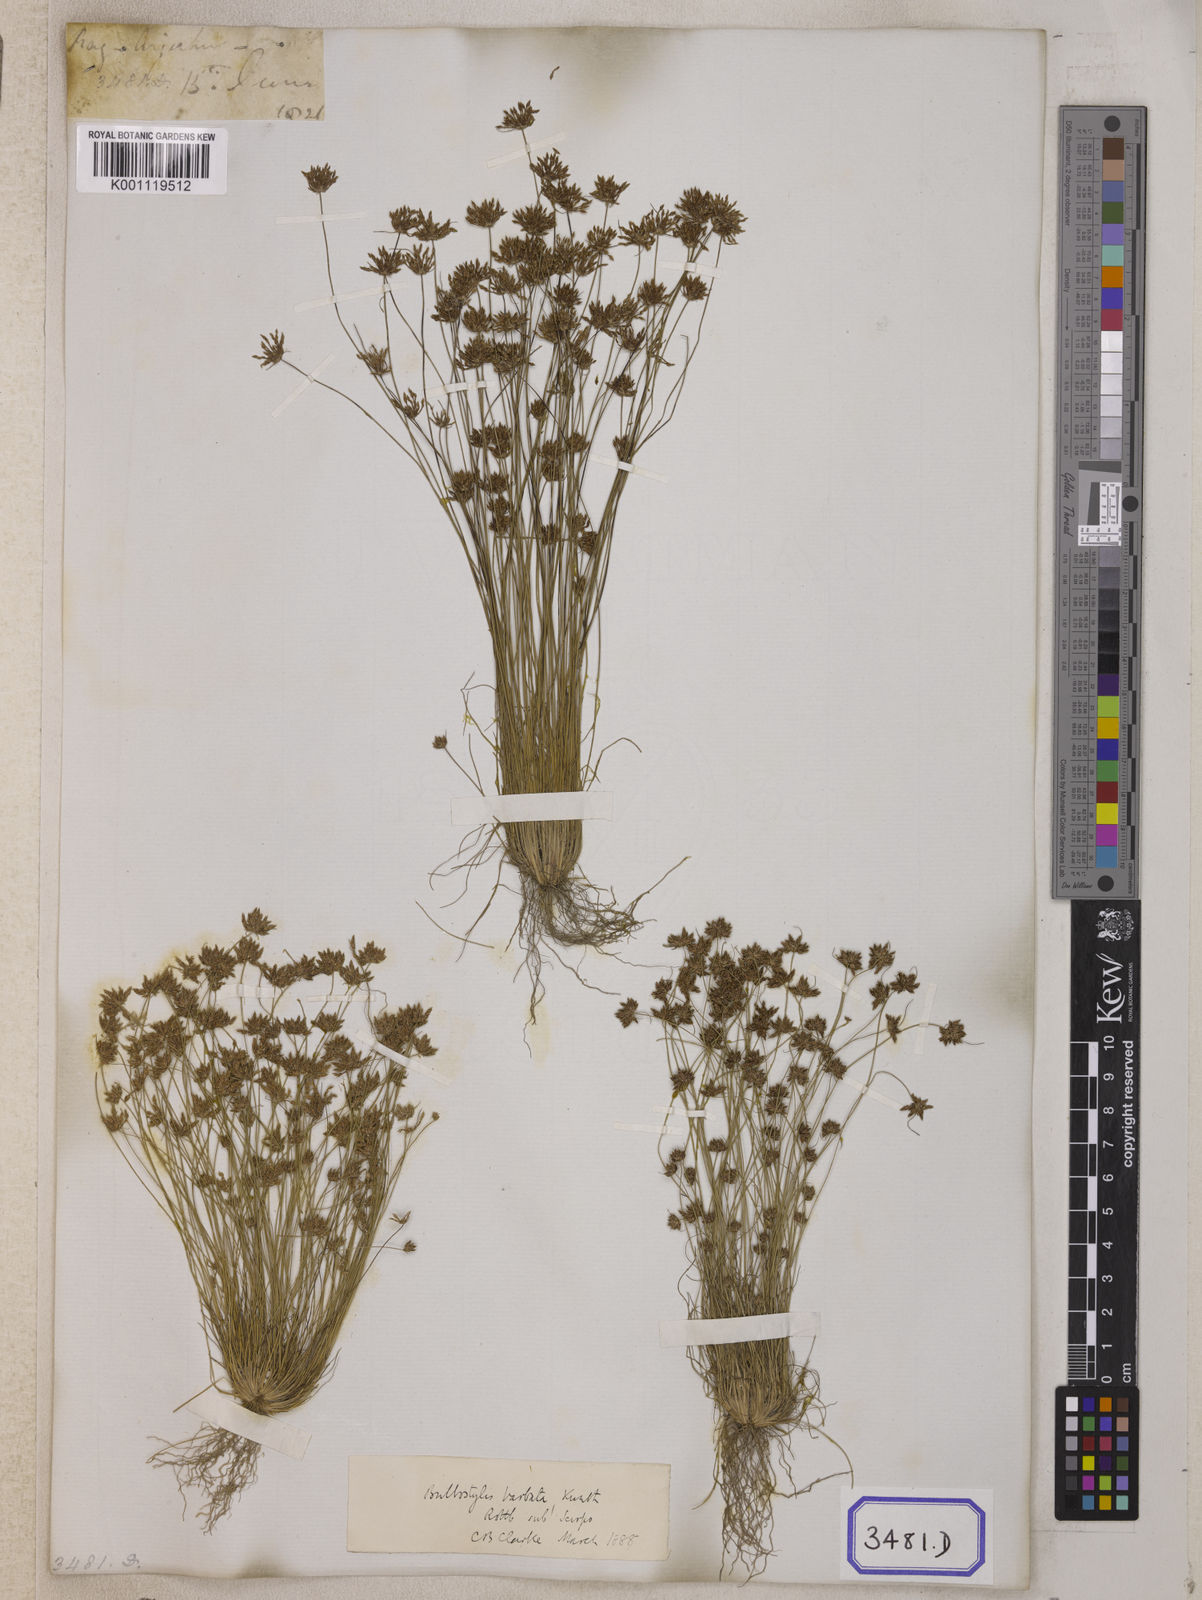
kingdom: Plantae
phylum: Tracheophyta
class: Liliopsida
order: Poales
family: Cyperaceae
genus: Isolepis
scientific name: Isolepis
